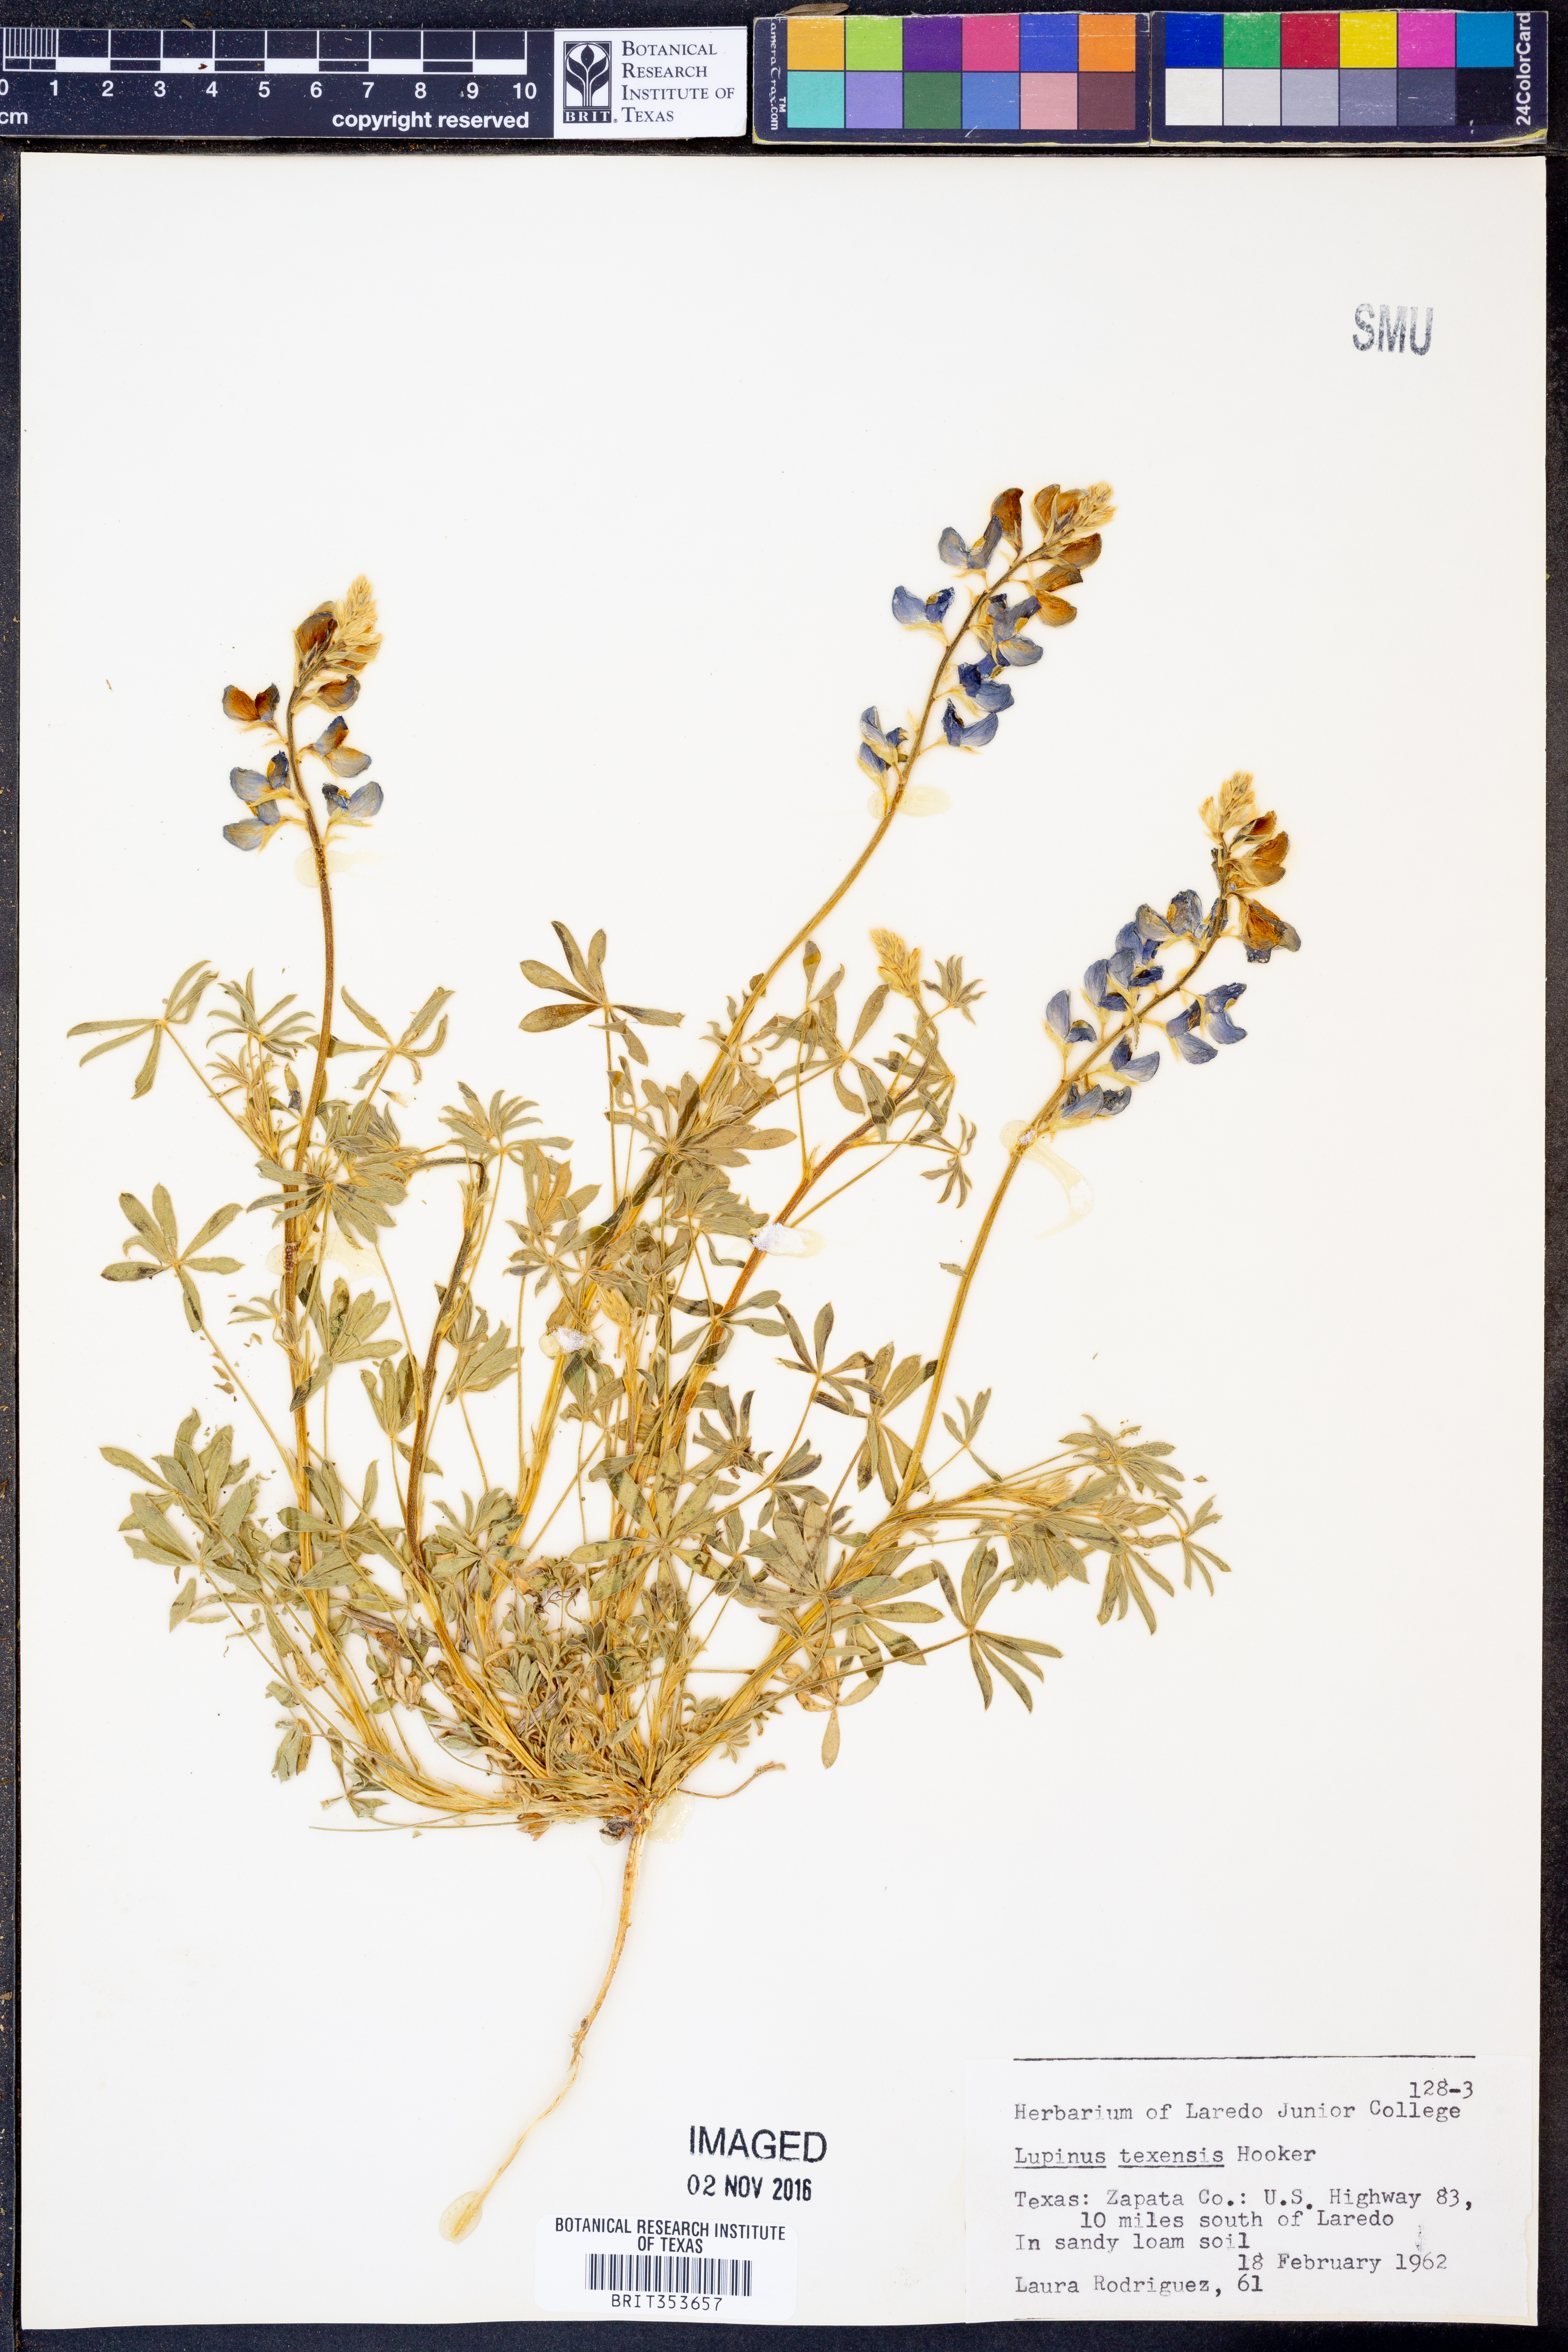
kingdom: Plantae
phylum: Tracheophyta
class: Magnoliopsida
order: Fabales
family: Fabaceae
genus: Lupinus
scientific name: Lupinus texensis
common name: Texas bluebonnet
